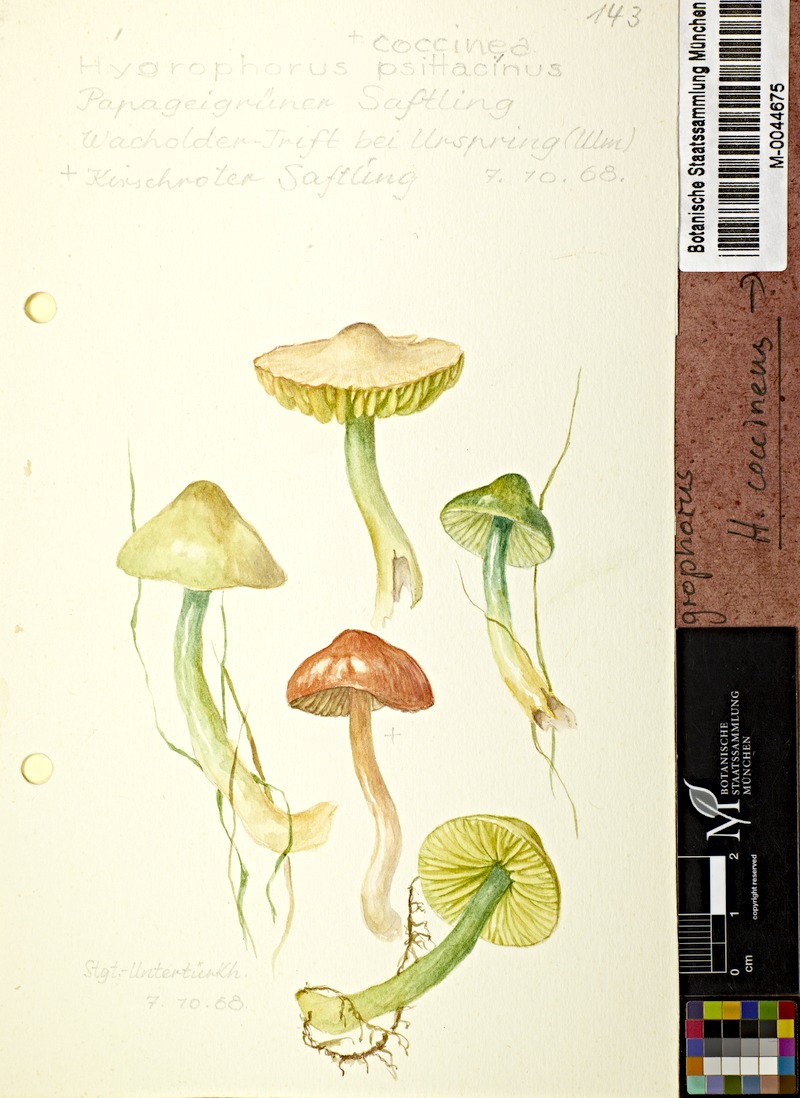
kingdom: Fungi
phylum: Basidiomycota
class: Agaricomycetes
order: Agaricales
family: Hygrophoraceae
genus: Hygrocybe
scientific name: Hygrocybe coccinea
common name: Scarlet hood
